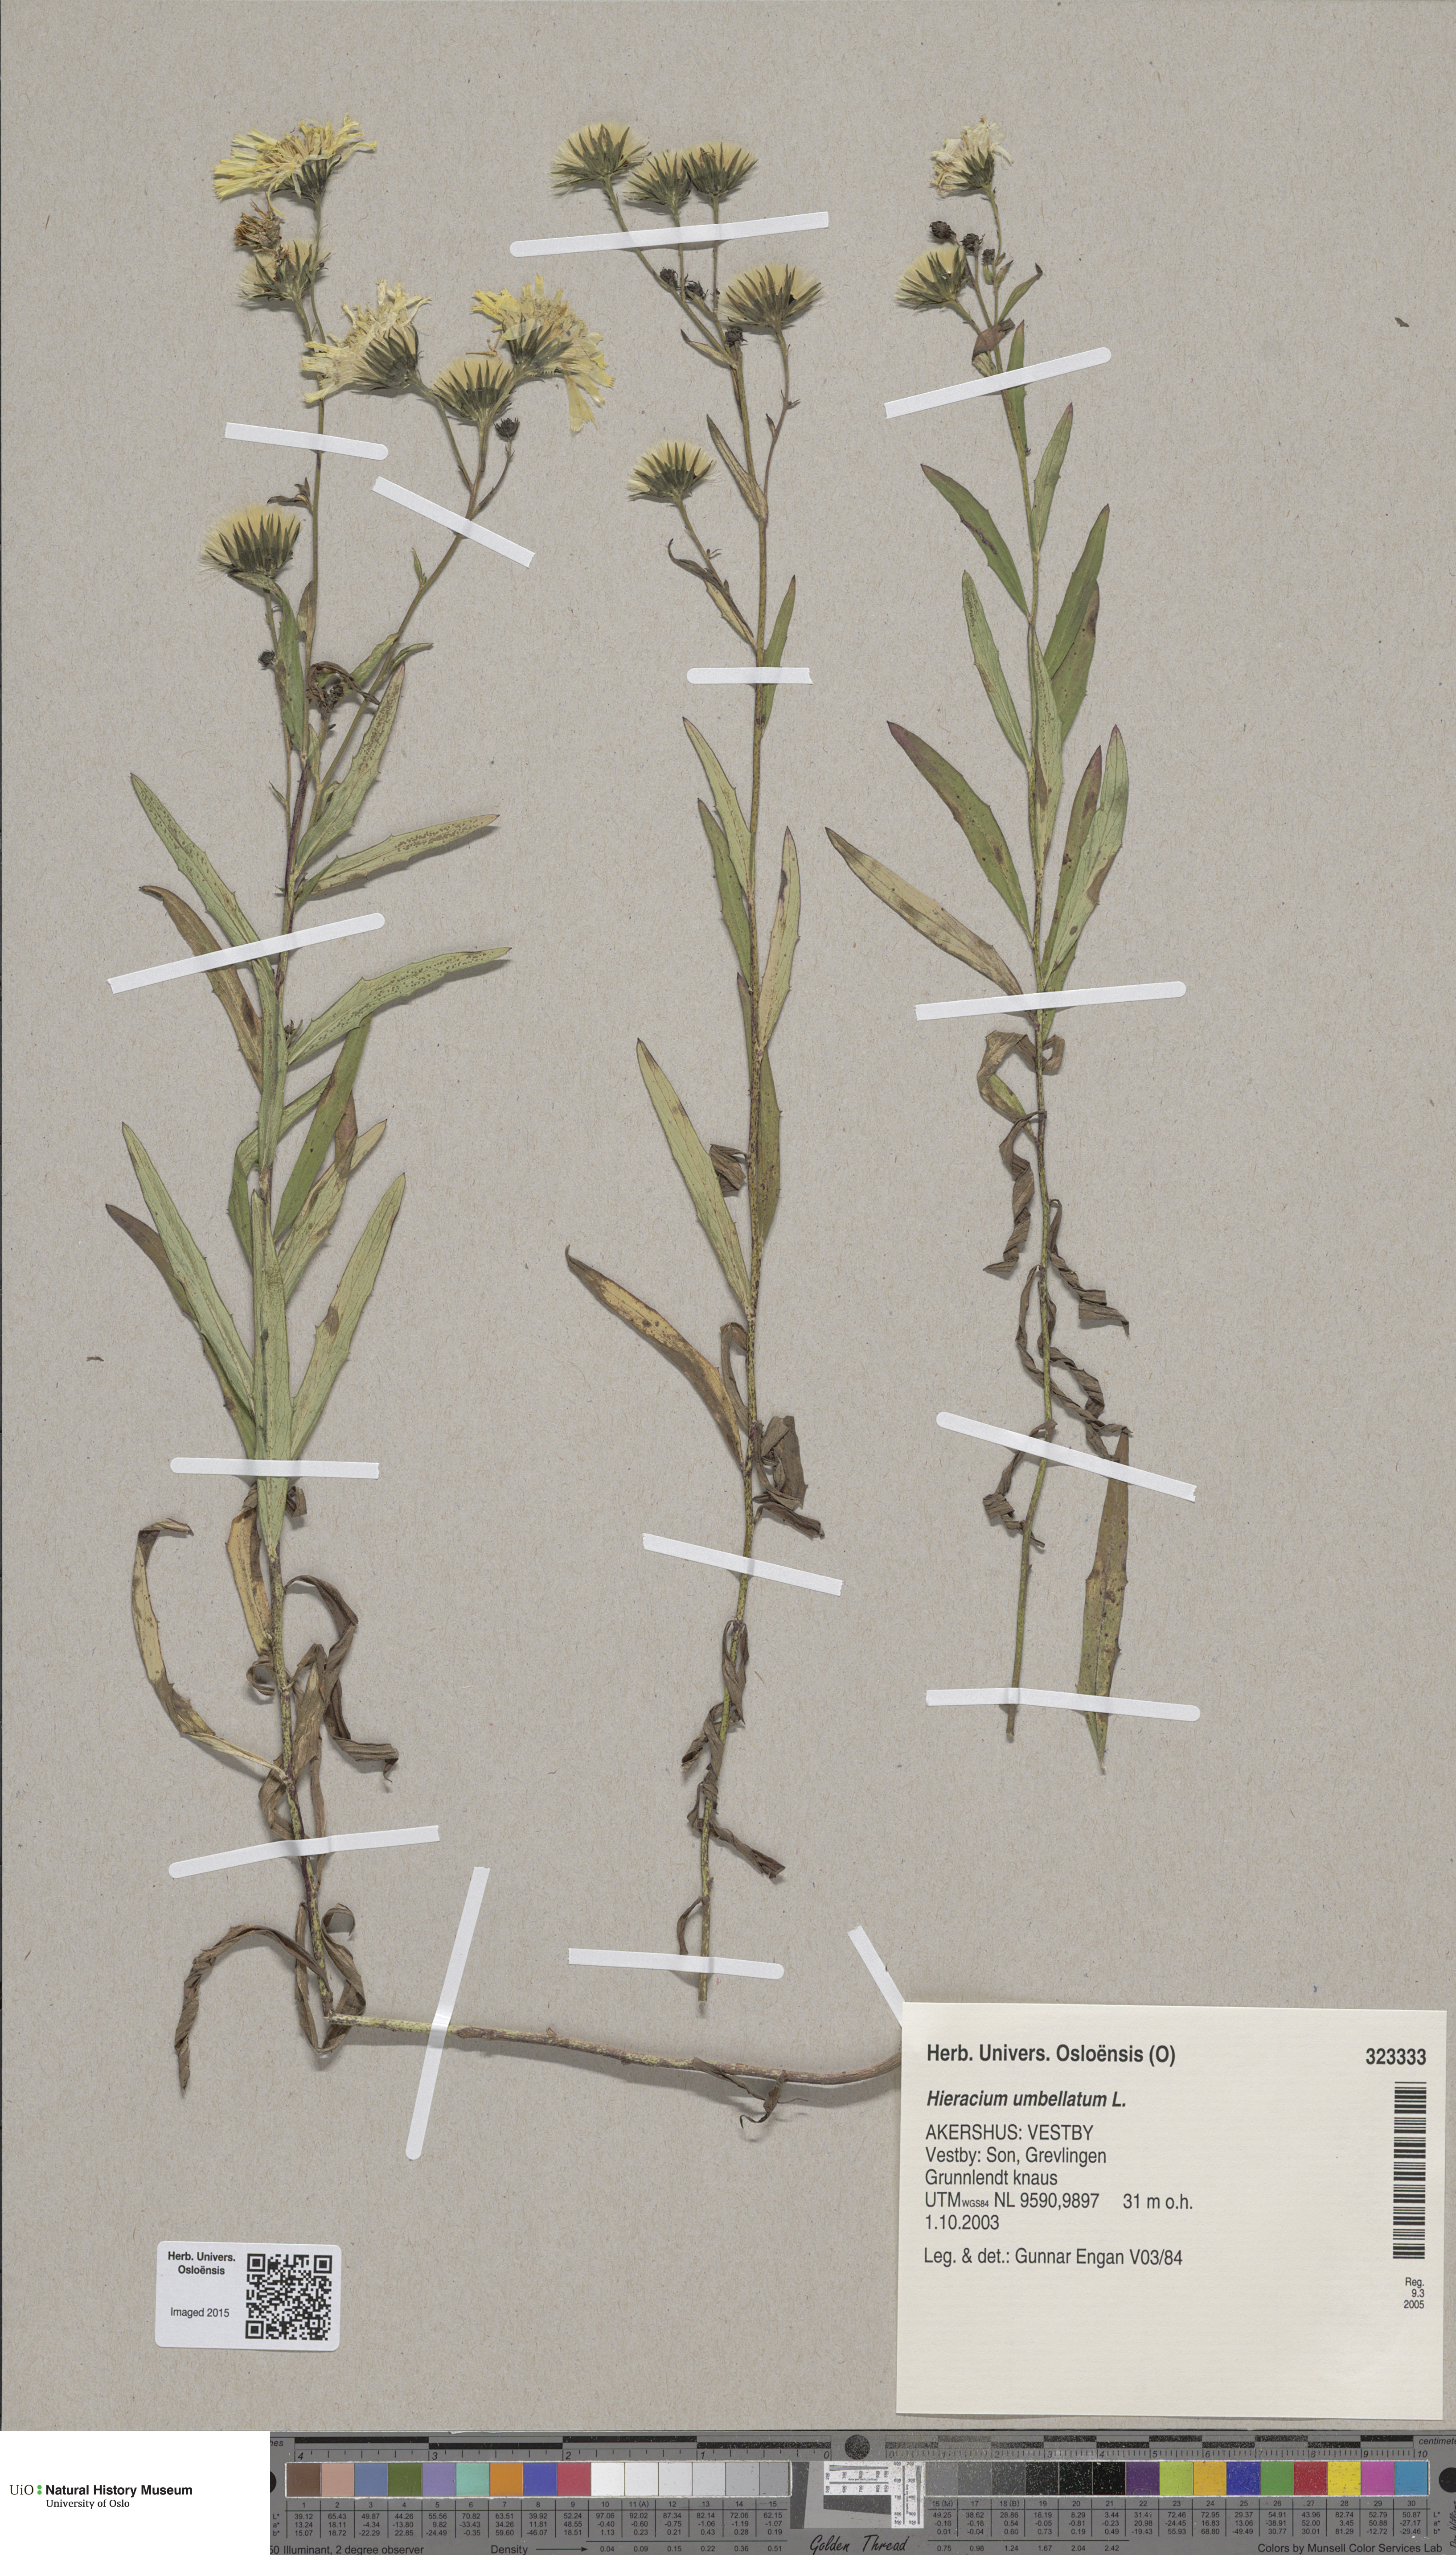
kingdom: Plantae
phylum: Tracheophyta
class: Magnoliopsida
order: Asterales
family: Asteraceae
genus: Hieracium
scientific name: Hieracium umbellatum
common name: Northern hawkweed
